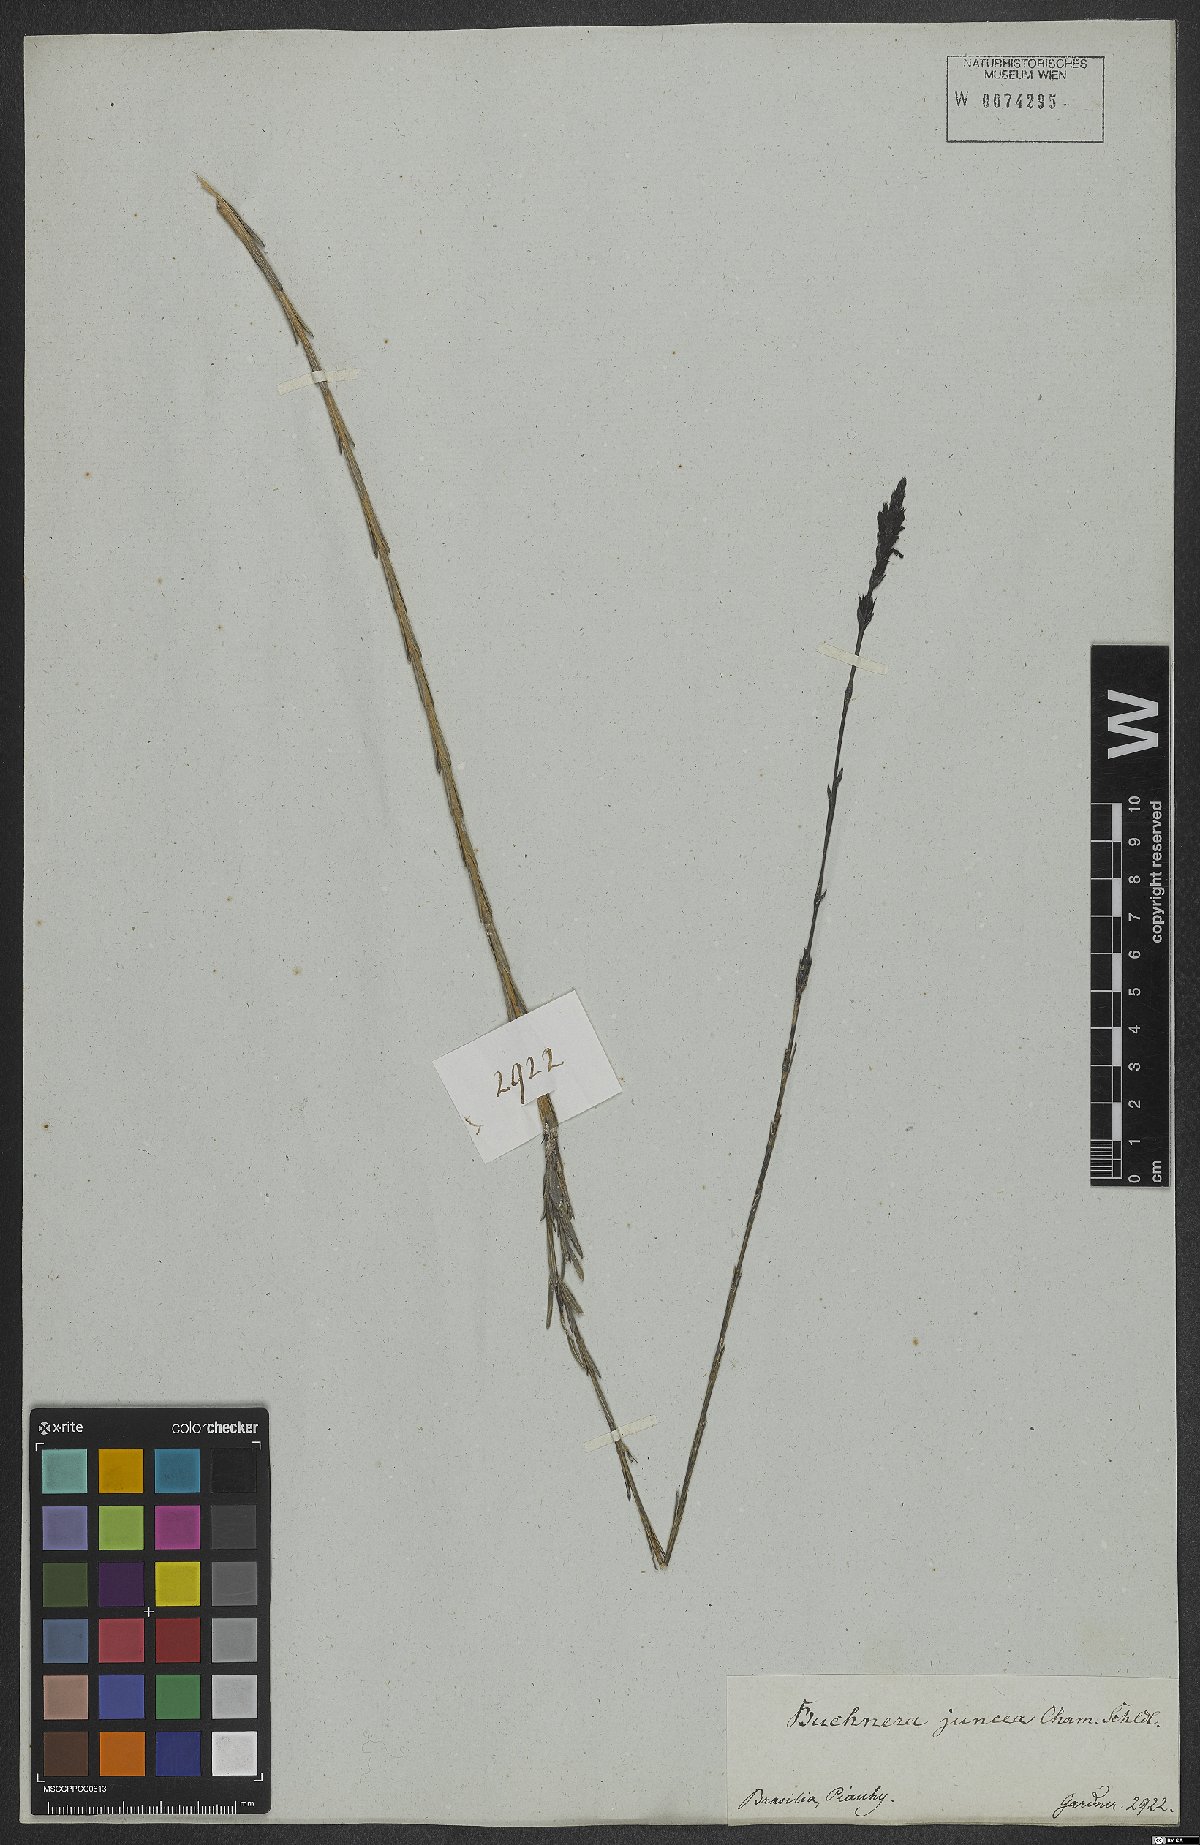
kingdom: Plantae
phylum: Tracheophyta
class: Magnoliopsida
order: Lamiales
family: Orobanchaceae
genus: Buchnera
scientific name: Buchnera juncea
